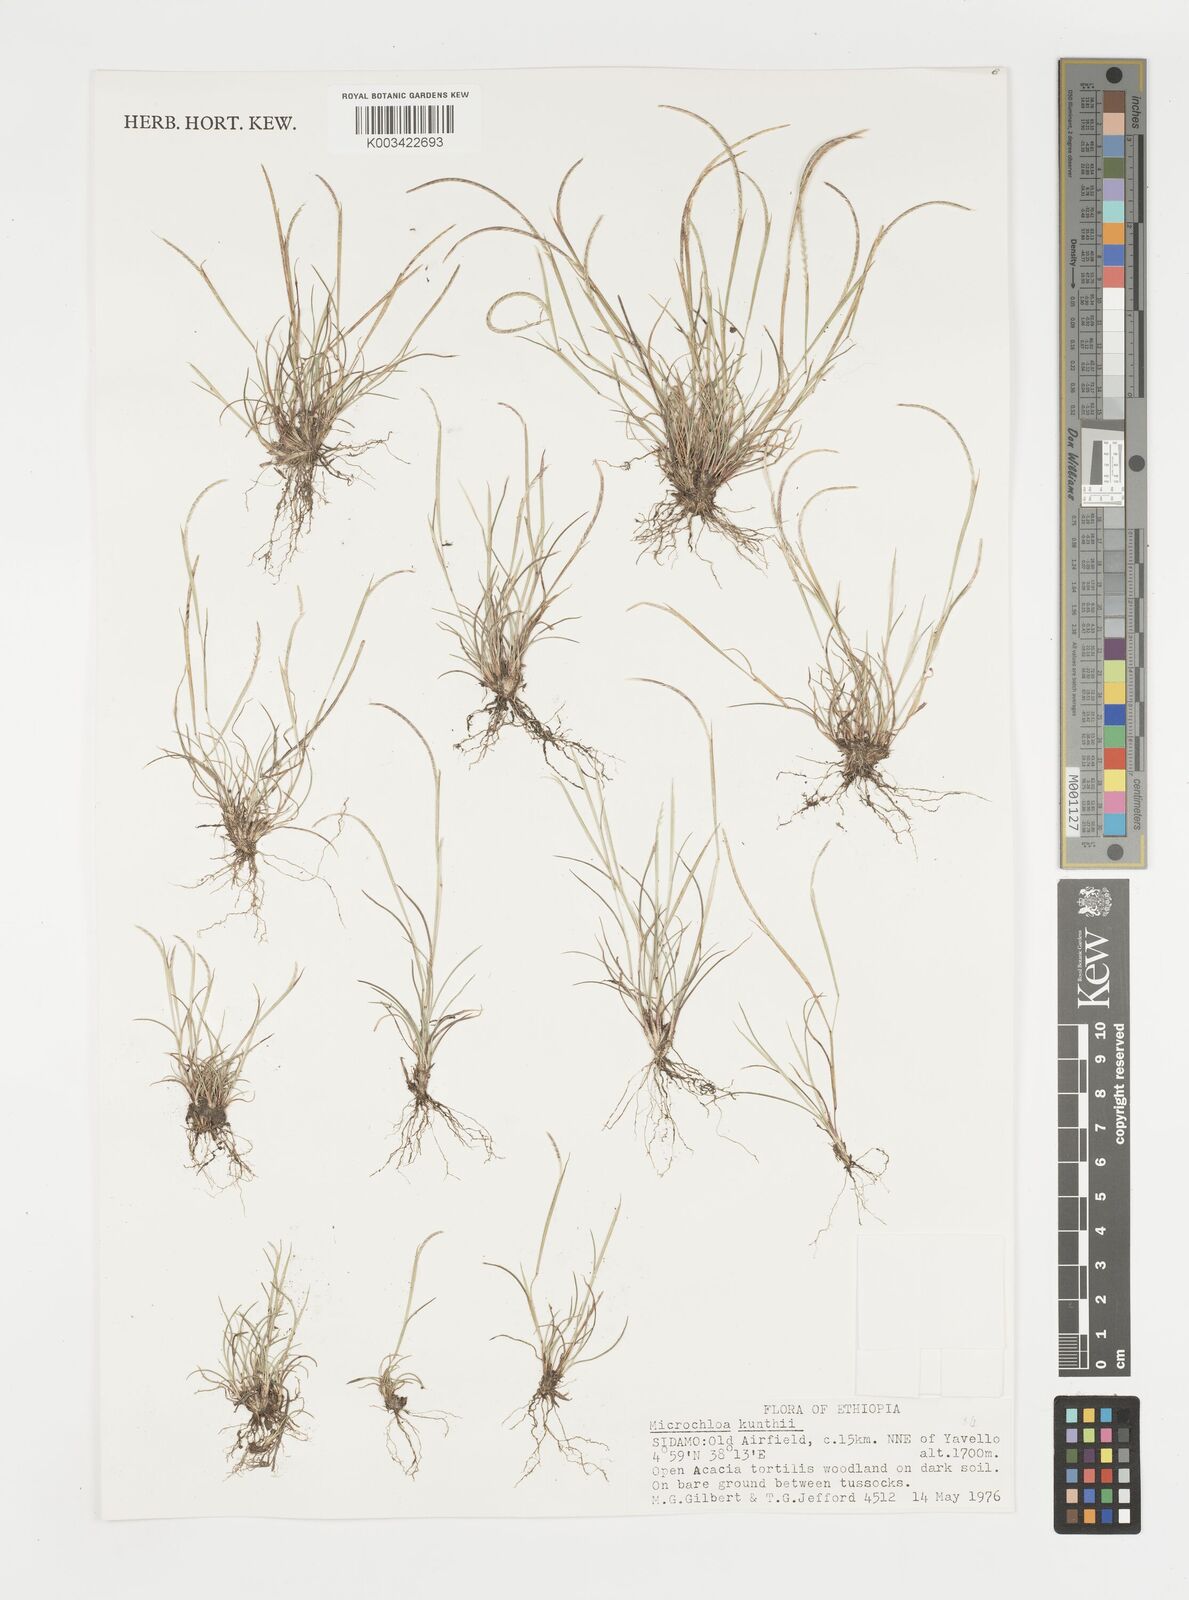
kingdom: Plantae
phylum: Tracheophyta
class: Liliopsida
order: Poales
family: Poaceae
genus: Microchloa
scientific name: Microchloa kunthii
